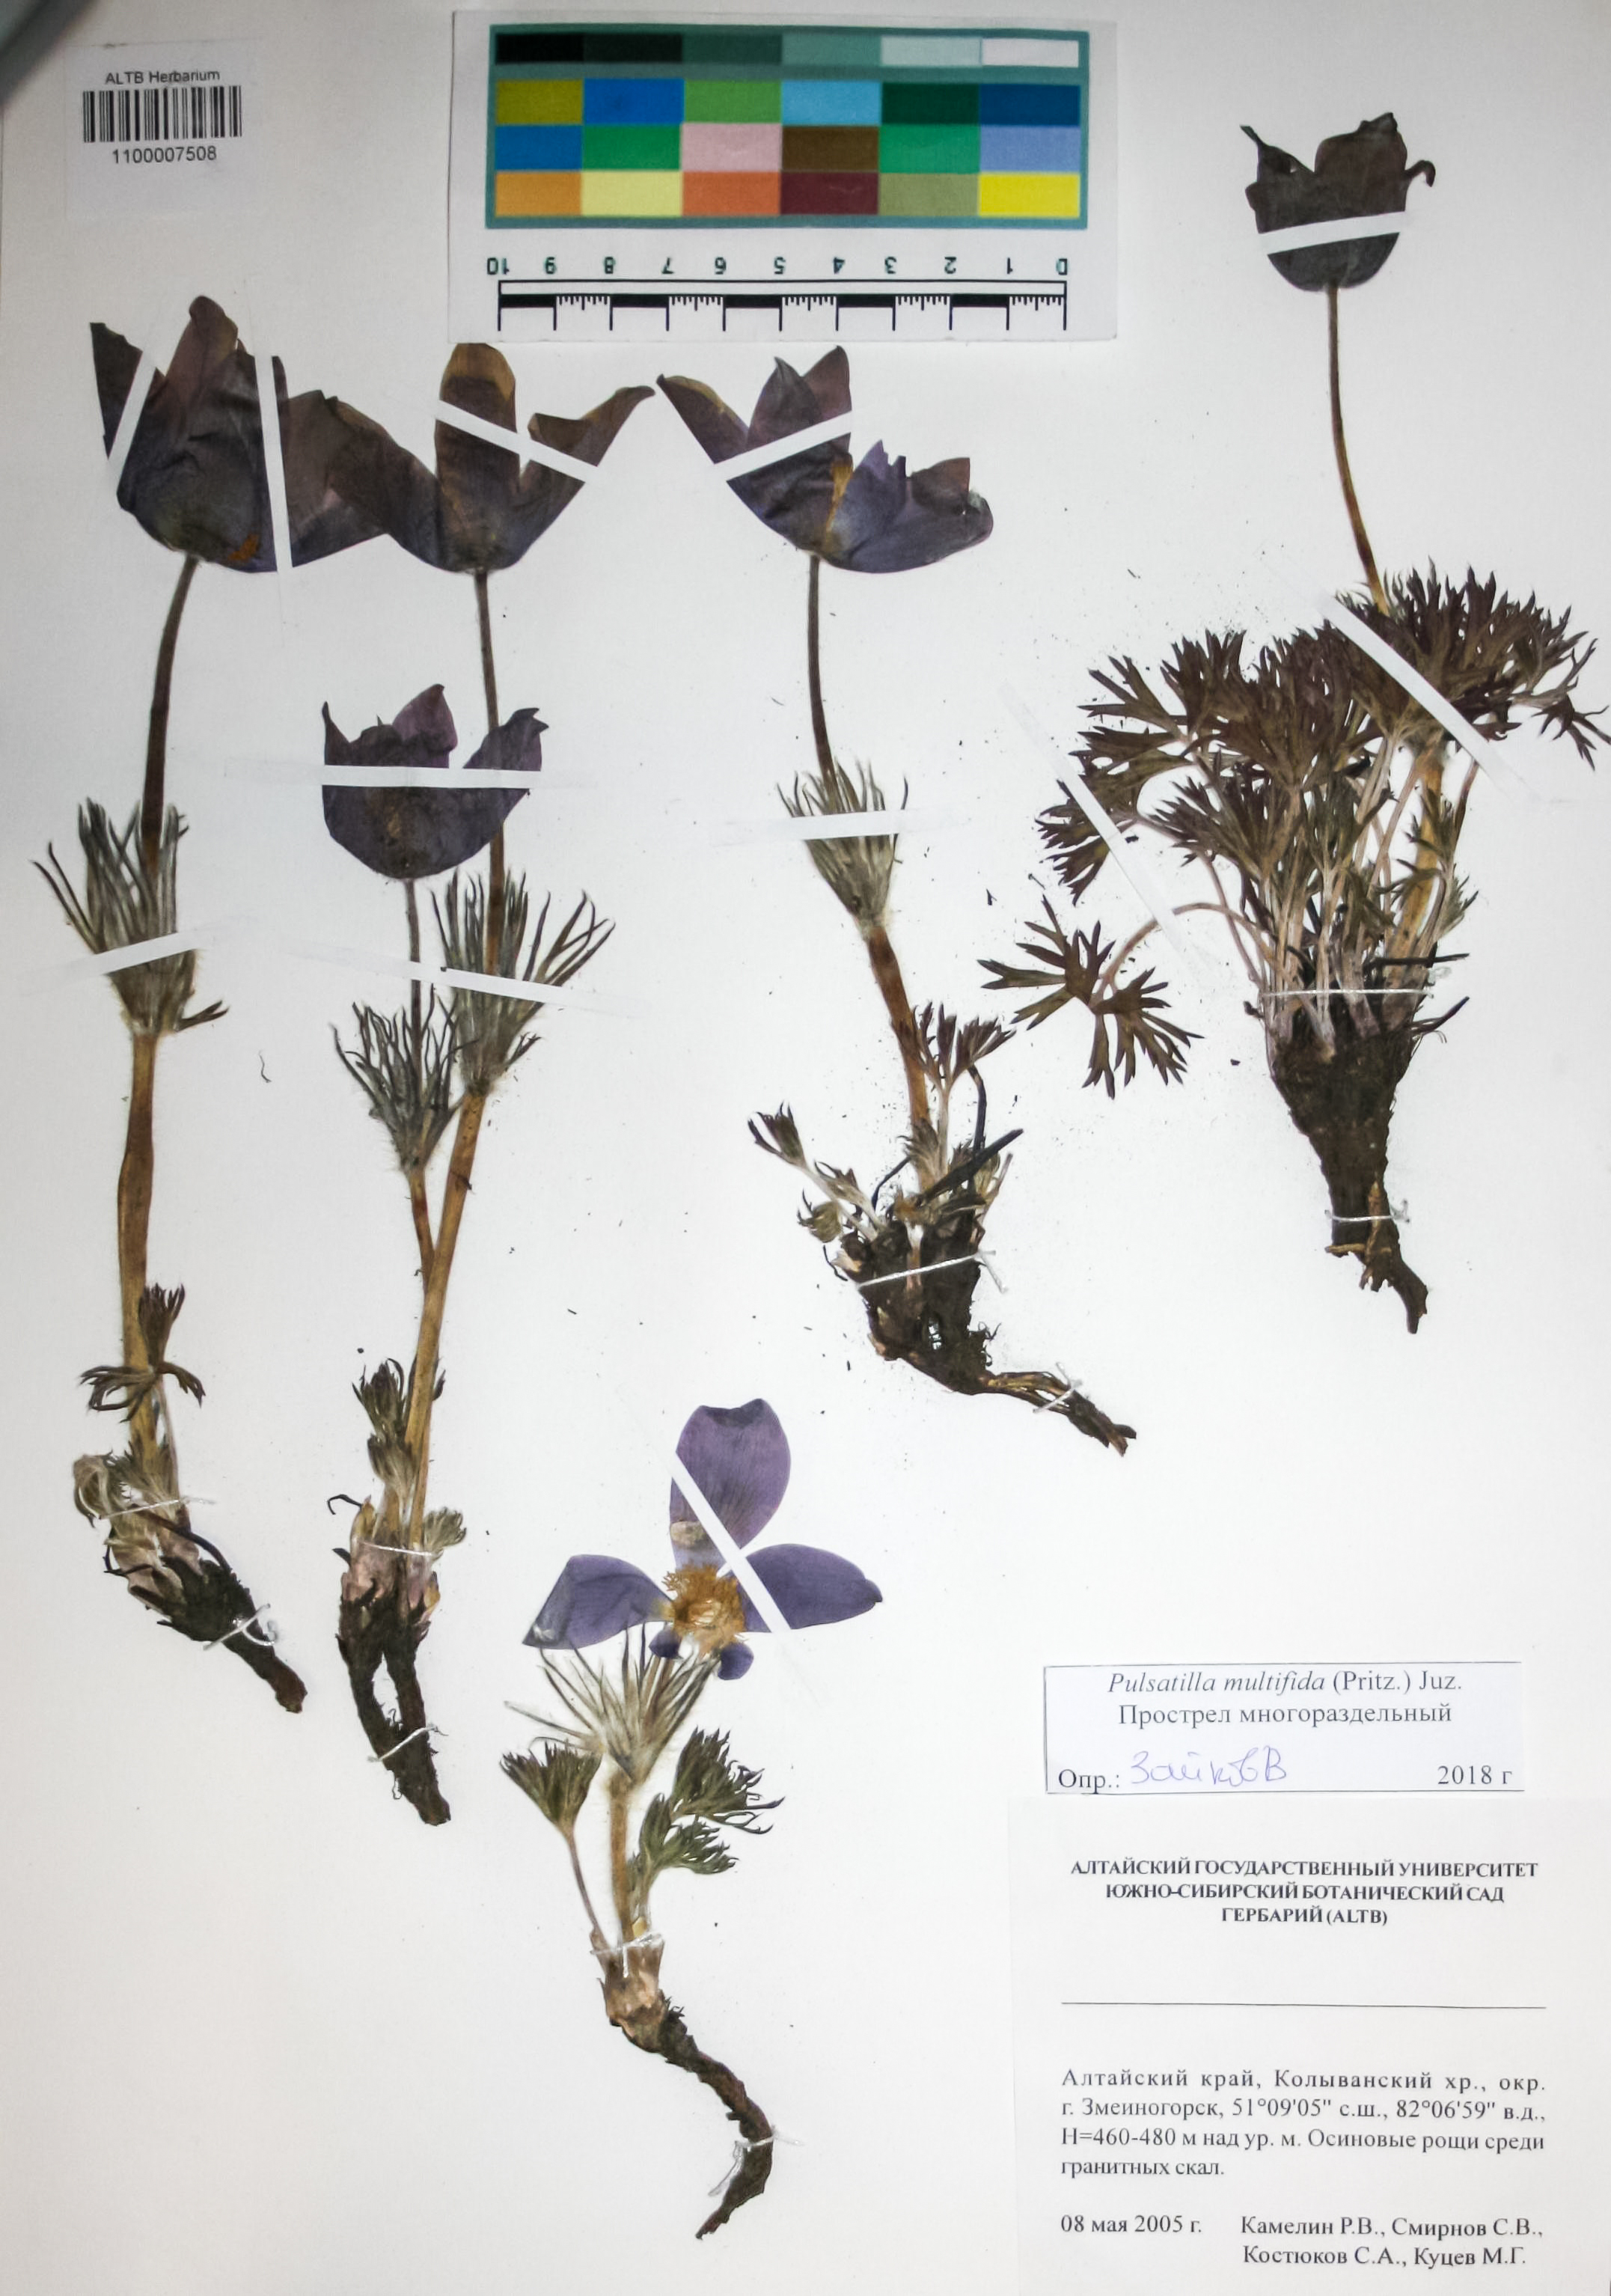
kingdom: Plantae
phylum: Tracheophyta
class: Magnoliopsida
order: Ranunculales
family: Ranunculaceae
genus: Pulsatilla
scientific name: Pulsatilla patens
